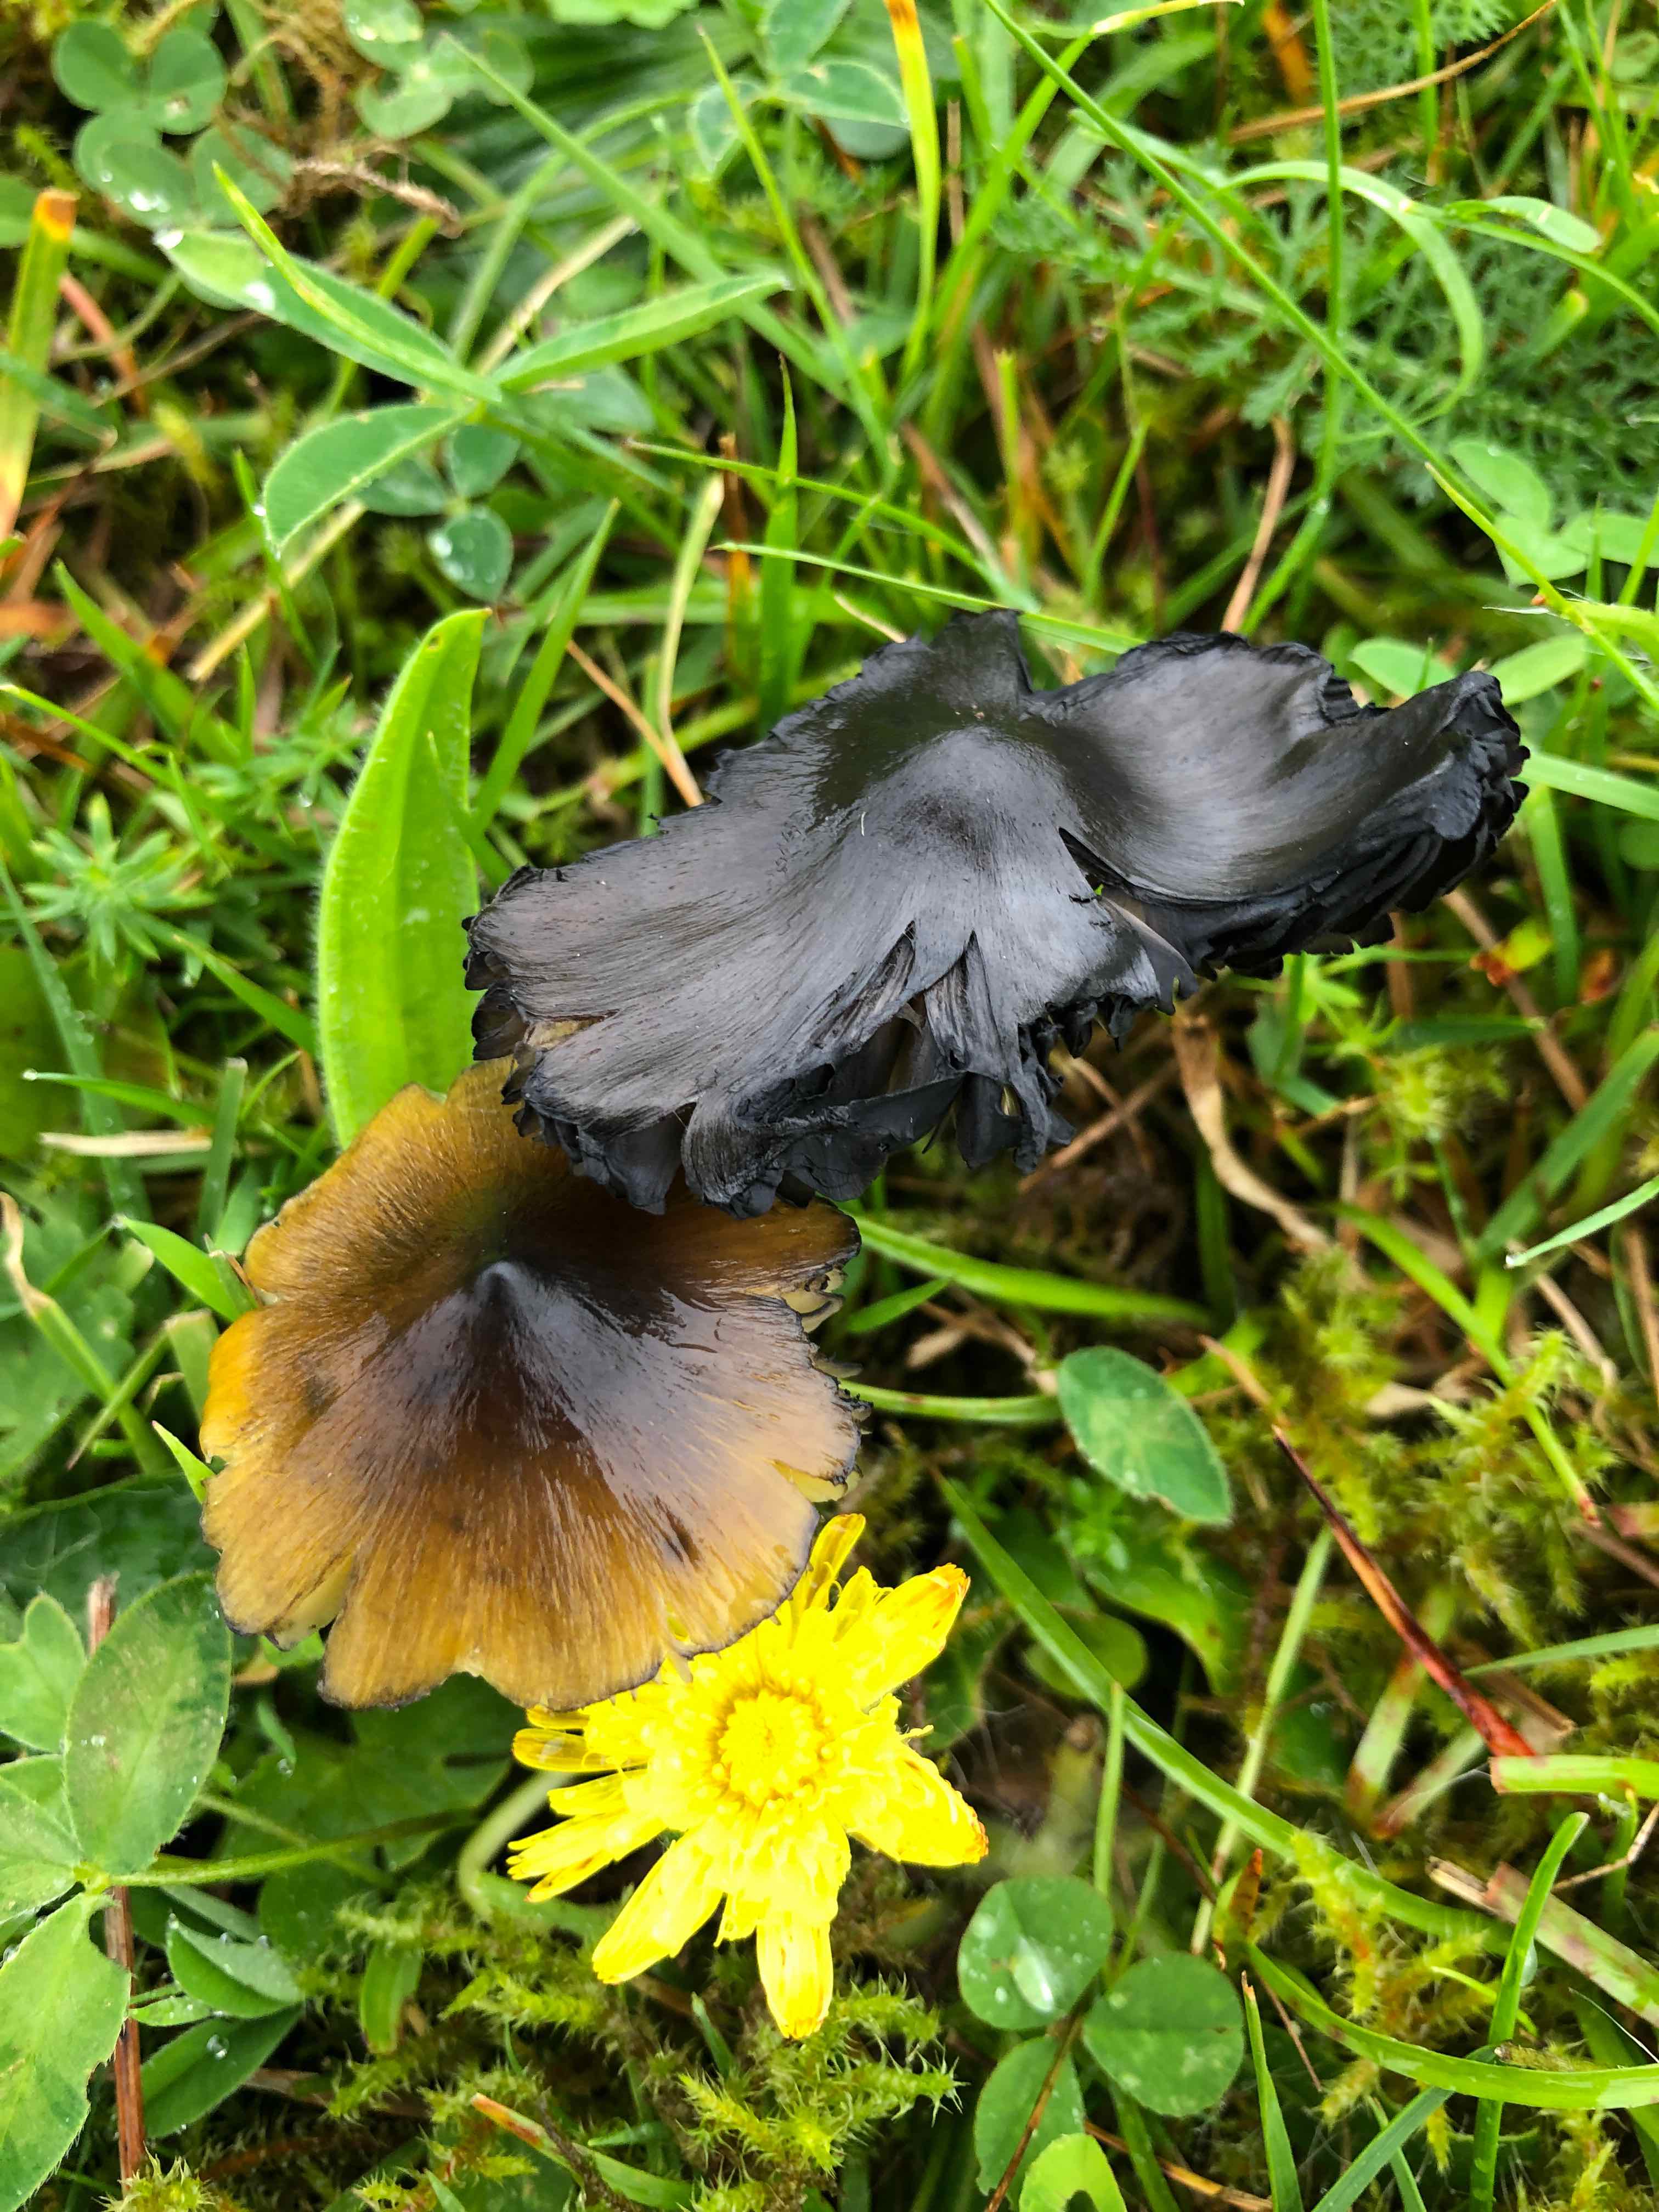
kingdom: Fungi
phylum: Basidiomycota
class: Agaricomycetes
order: Agaricales
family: Hygrophoraceae
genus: Hygrocybe
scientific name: Hygrocybe conica
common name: kegle-vokshat
